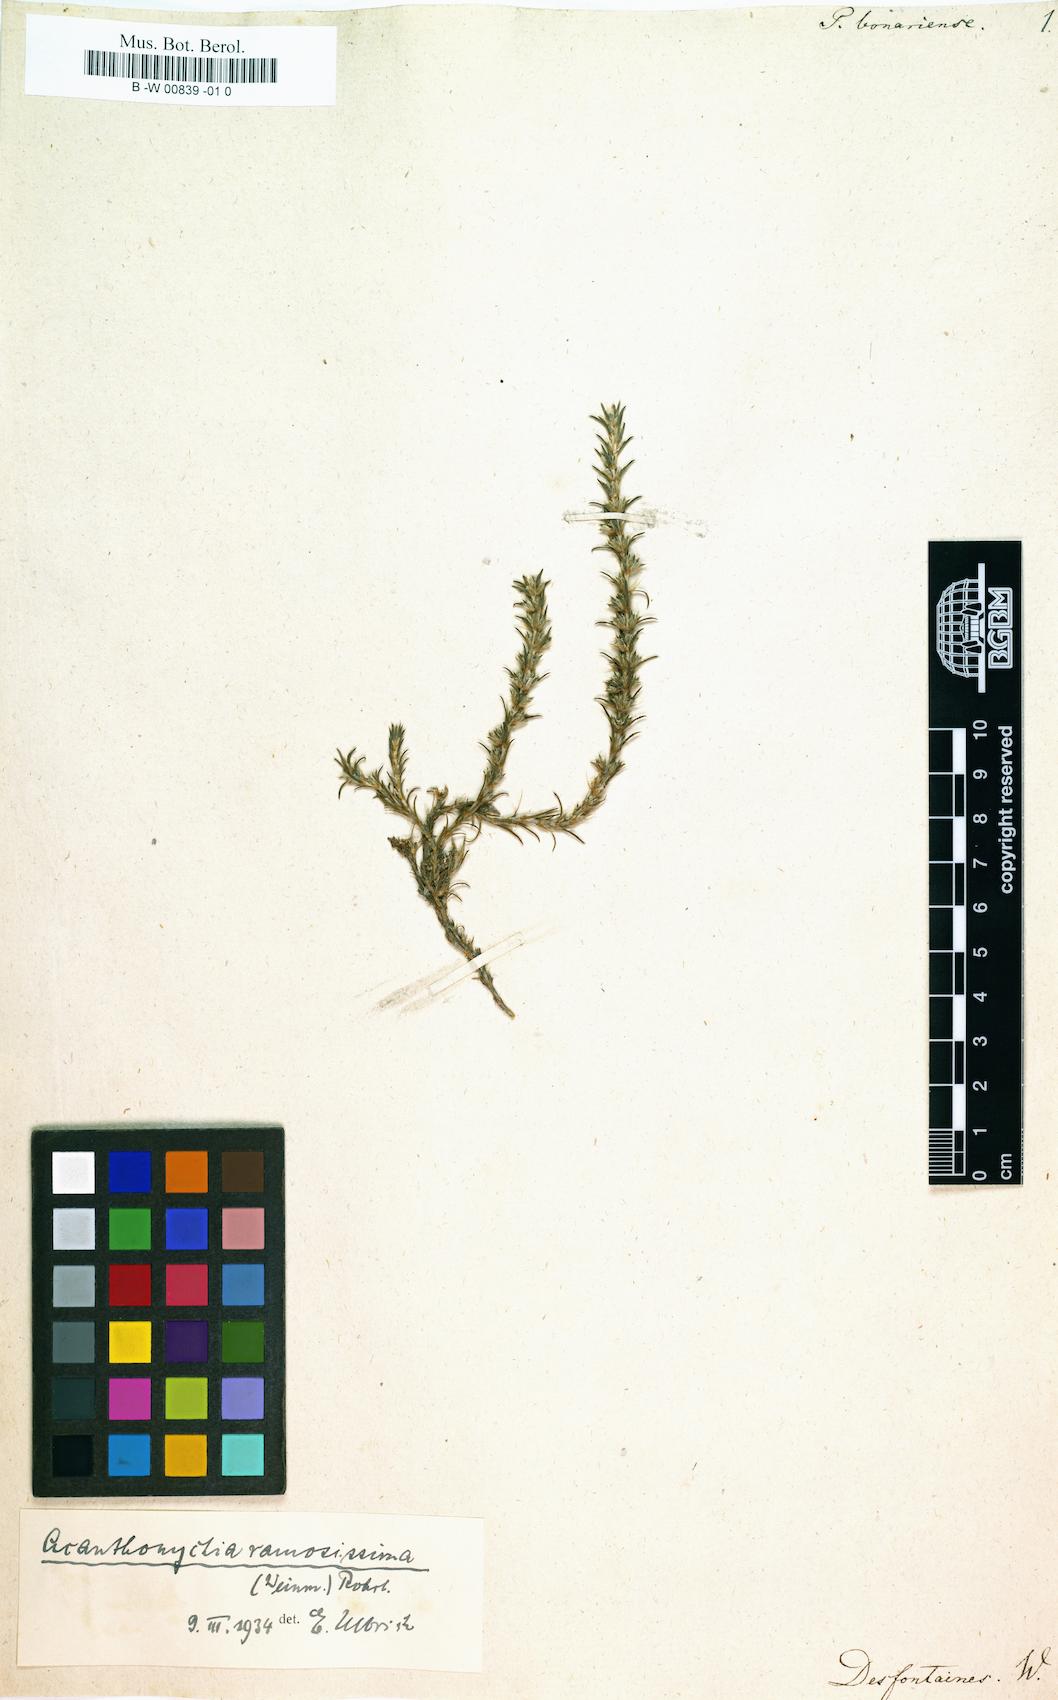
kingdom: Plantae
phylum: Tracheophyta
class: Magnoliopsida
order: Caryophyllales
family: Caryophyllaceae
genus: Cardionema
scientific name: Cardionema ramosissima
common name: Sandcarpet
